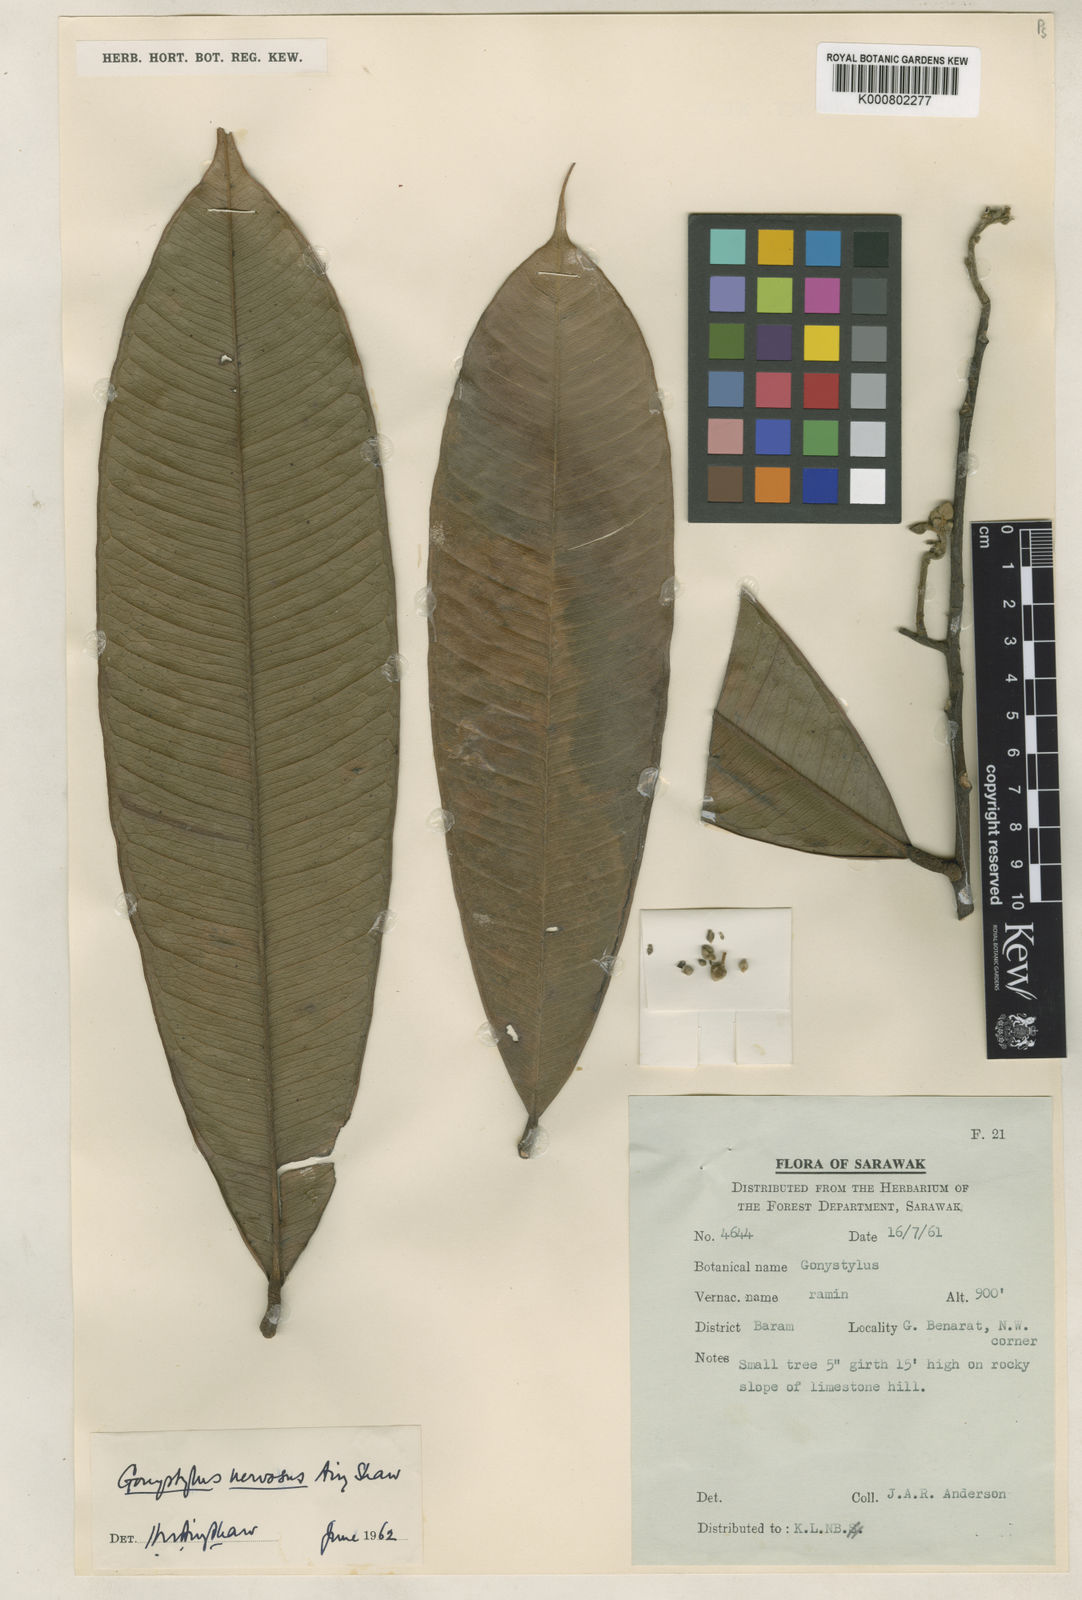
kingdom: Plantae
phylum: Tracheophyta
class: Magnoliopsida
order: Malvales
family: Thymelaeaceae
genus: Gonystylus
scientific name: Gonystylus nervosus
